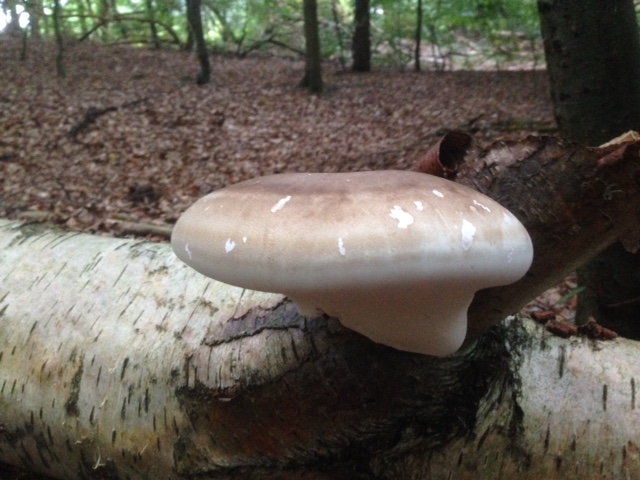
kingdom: Fungi
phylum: Basidiomycota
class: Agaricomycetes
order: Polyporales
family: Fomitopsidaceae
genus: Fomitopsis
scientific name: Fomitopsis betulina
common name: birkeporesvamp
